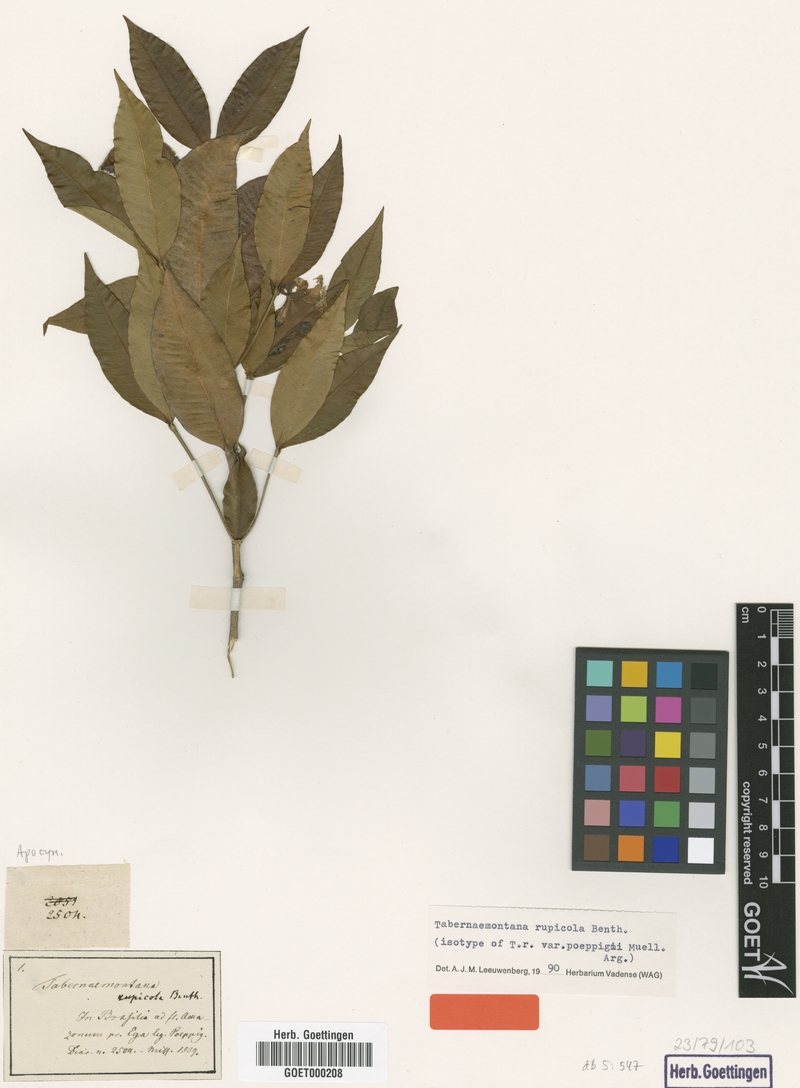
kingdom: Plantae
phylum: Tracheophyta
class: Magnoliopsida
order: Gentianales
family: Apocynaceae
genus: Tabernaemontana
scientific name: Tabernaemontana rupicola
